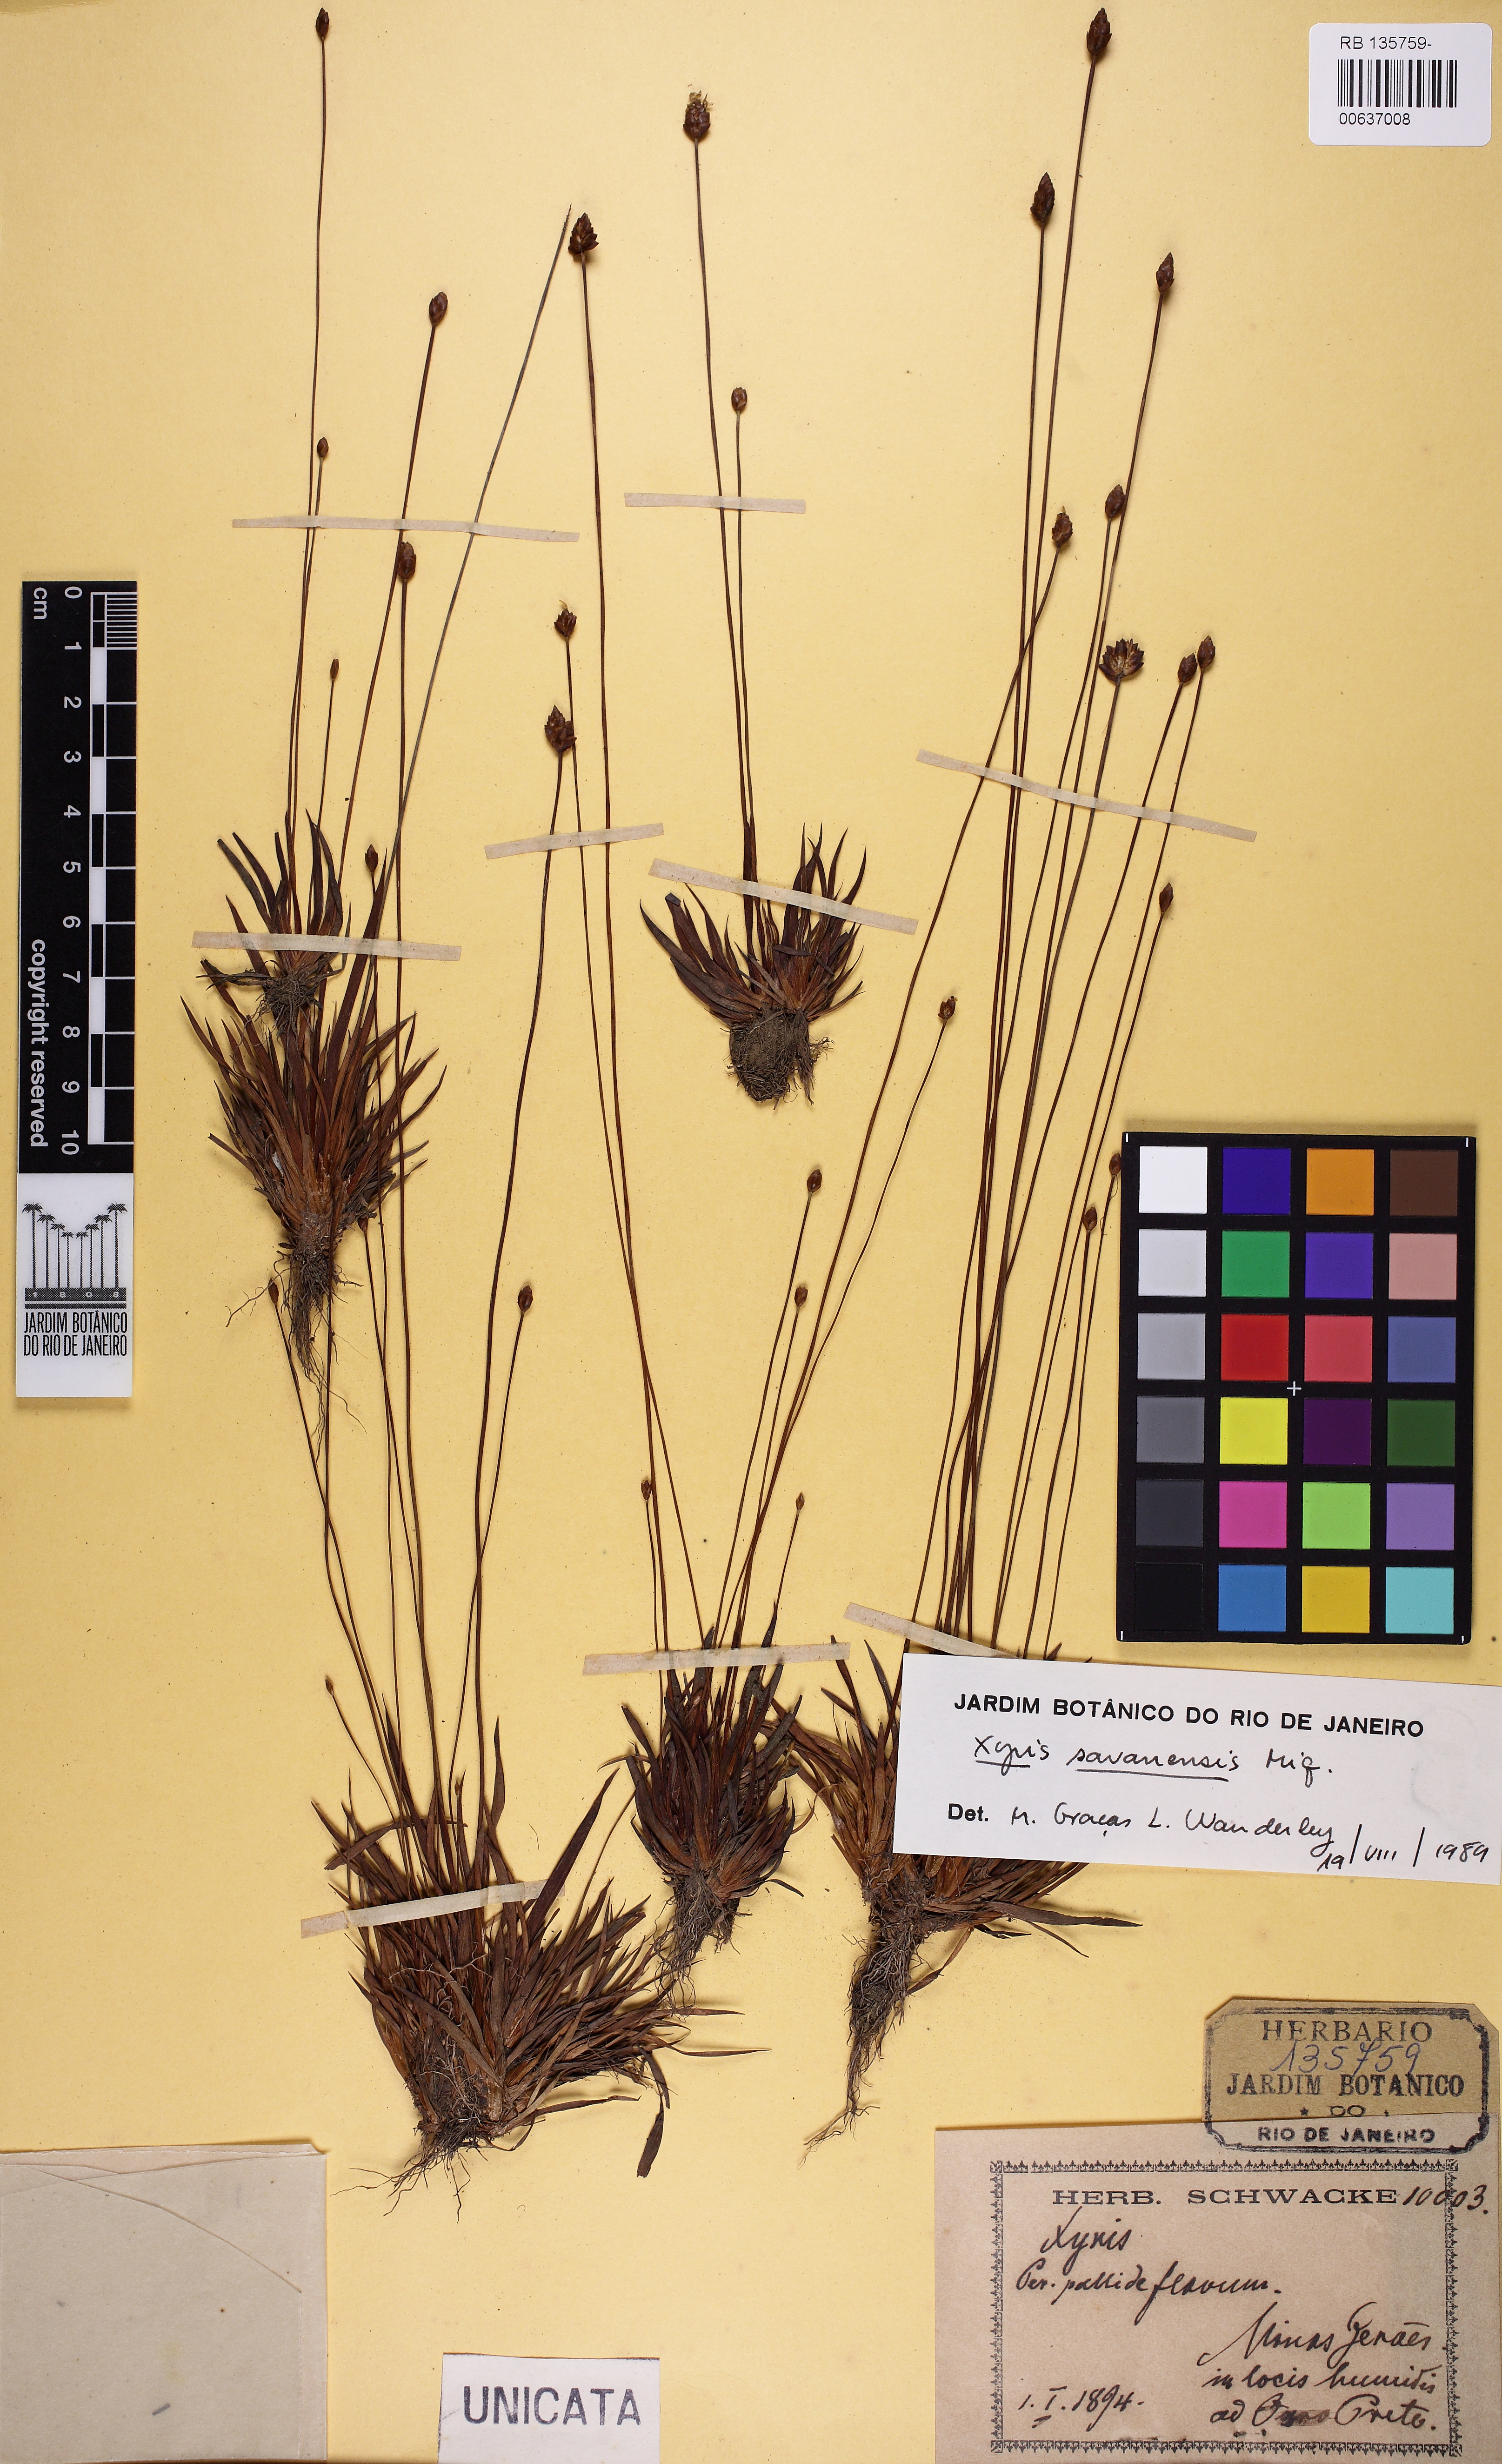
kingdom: Plantae
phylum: Tracheophyta
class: Liliopsida
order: Poales
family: Xyridaceae
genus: Xyris
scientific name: Xyris savanensis
